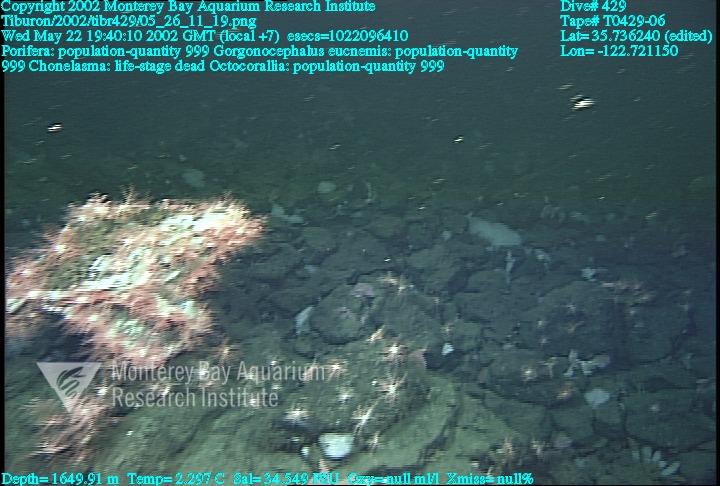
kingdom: Animalia
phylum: Porifera
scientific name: Porifera
